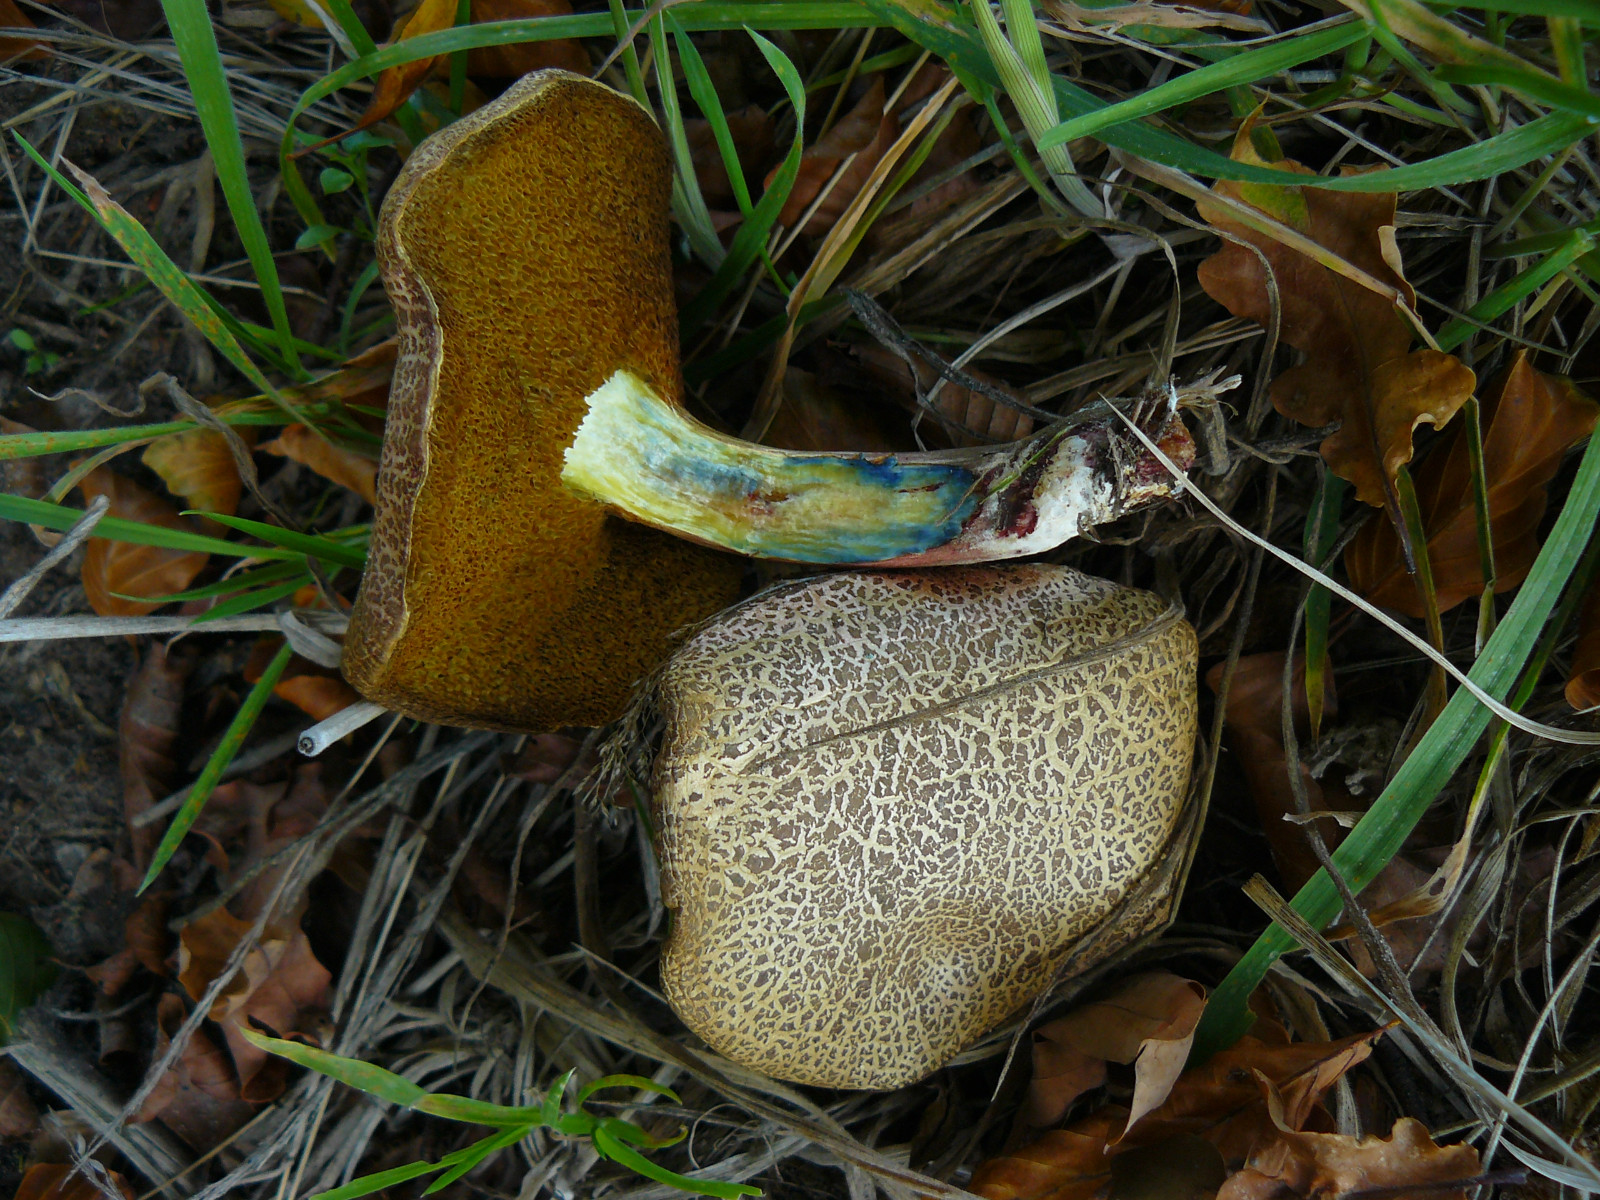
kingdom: Fungi
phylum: Basidiomycota
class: Agaricomycetes
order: Boletales
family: Boletaceae
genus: Xerocomellus
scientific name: Xerocomellus cisalpinus
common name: finsprukken rørhat
